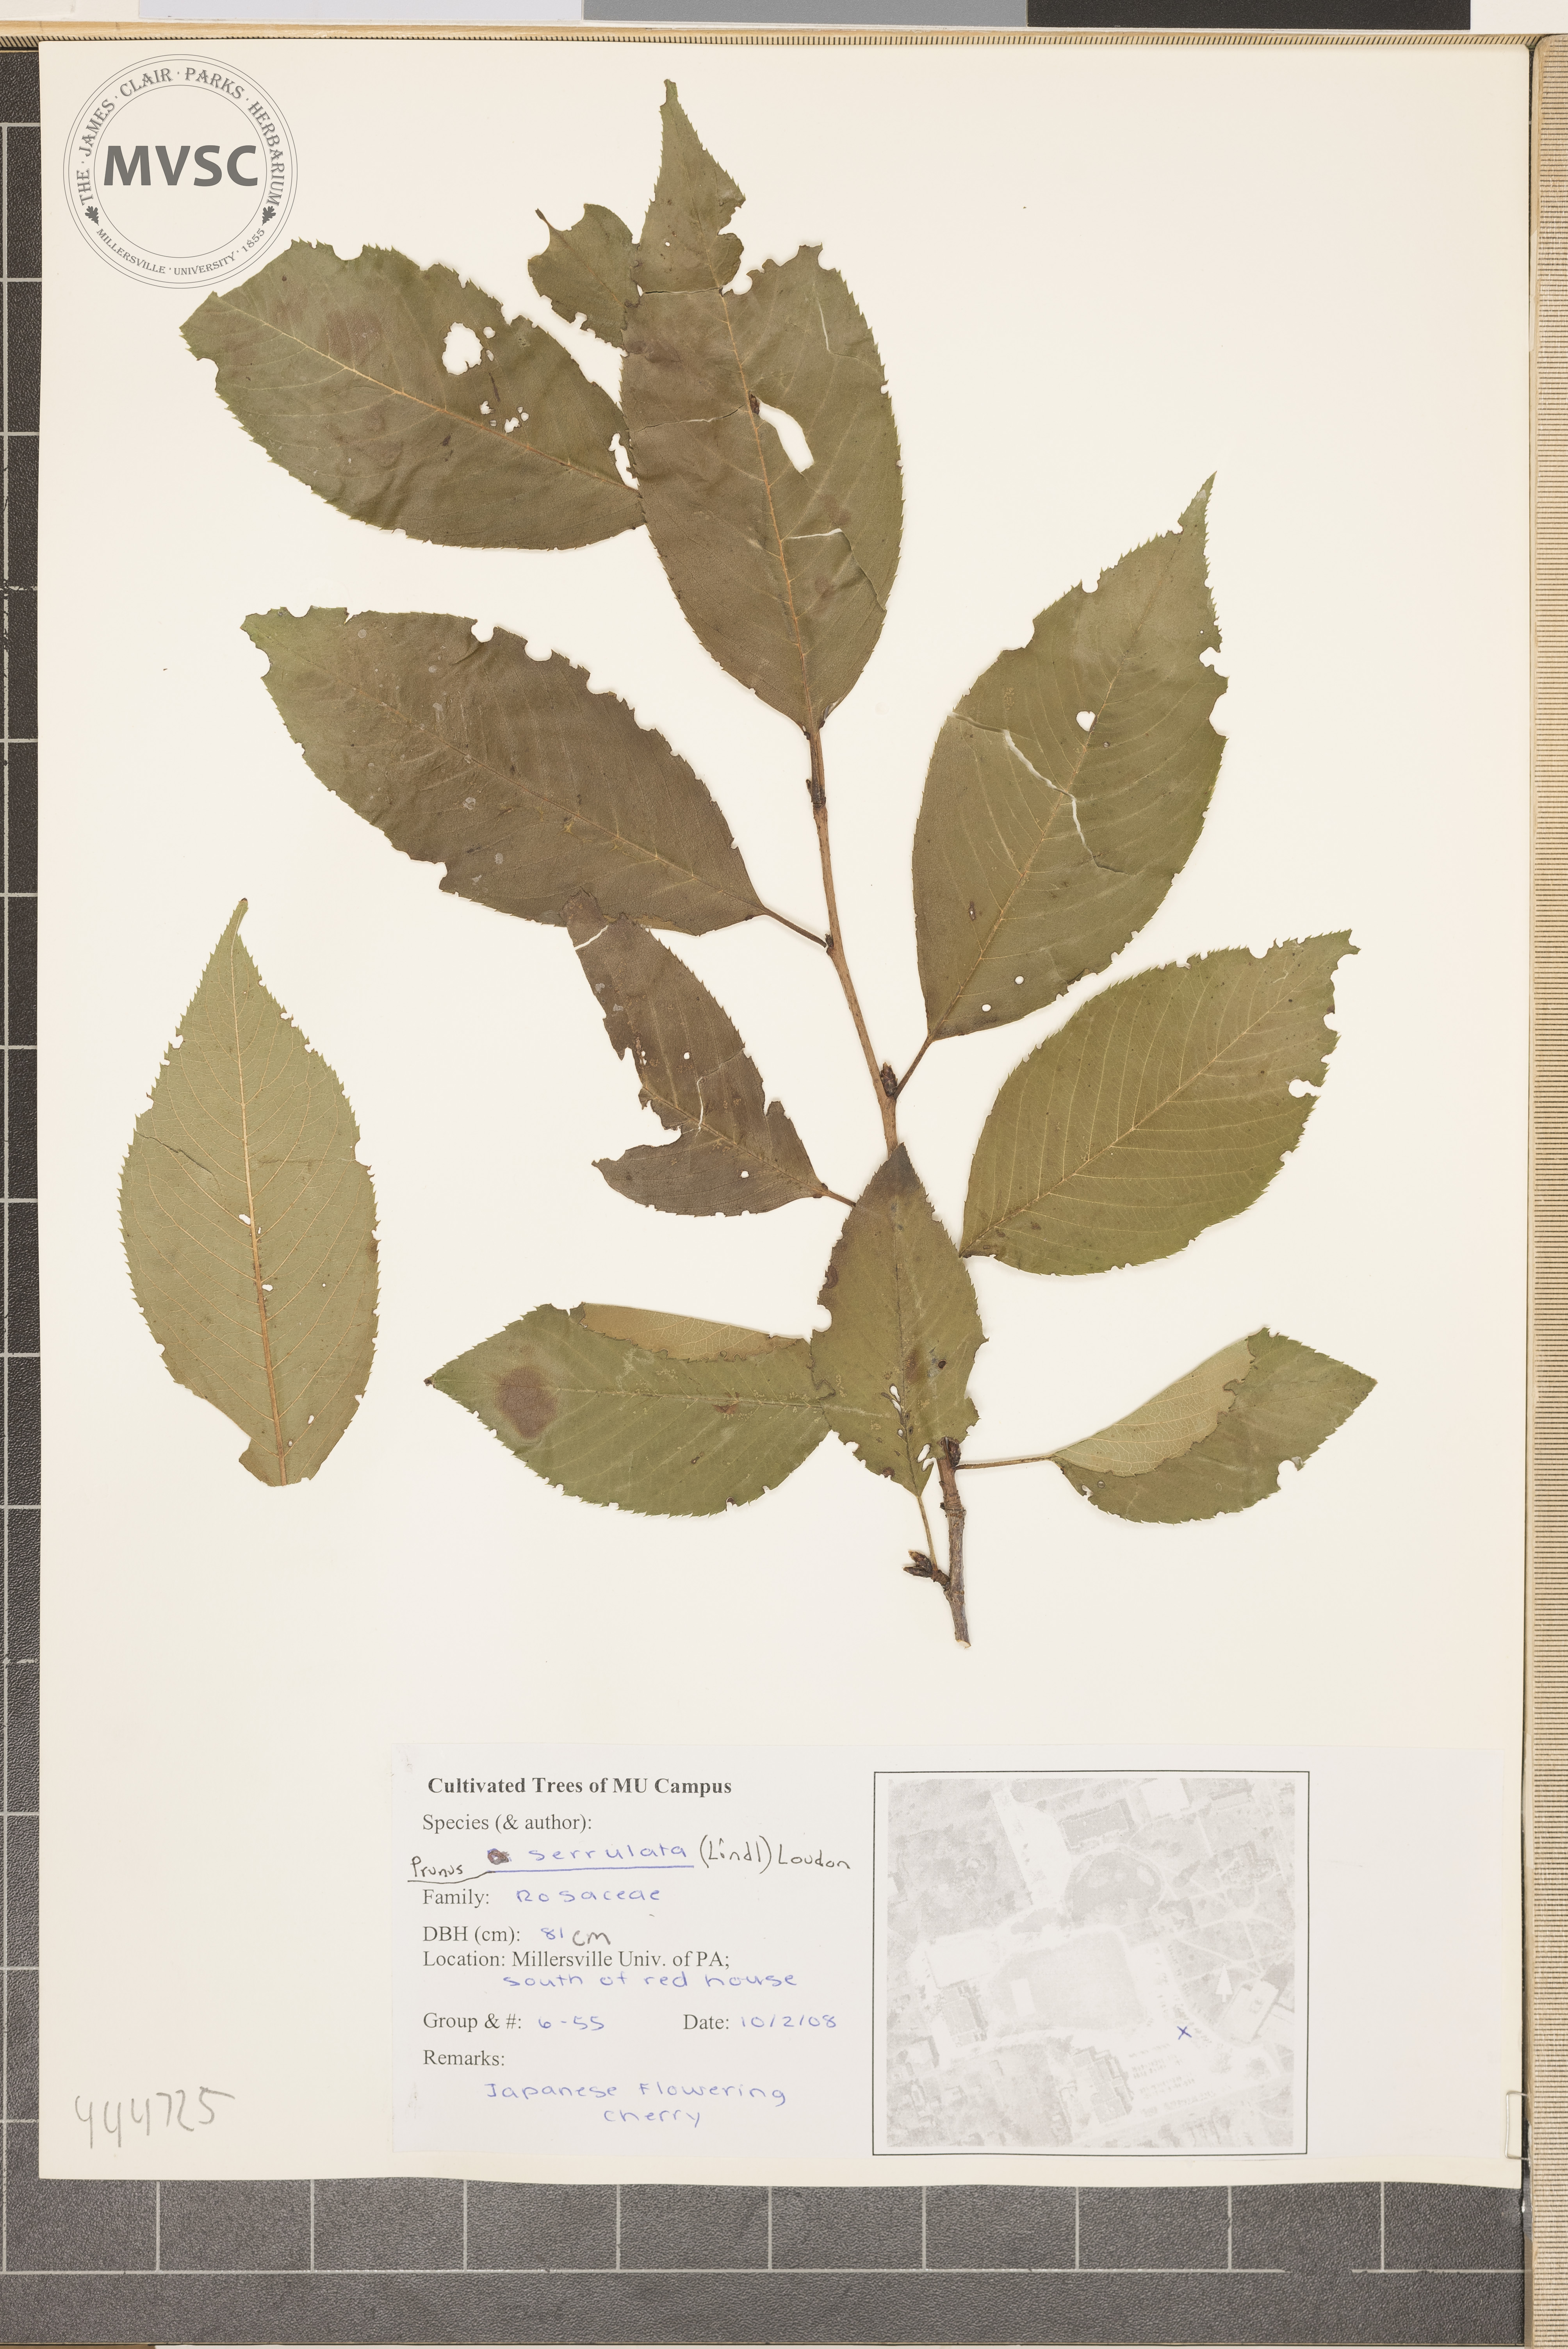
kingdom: Plantae
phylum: Tracheophyta
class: Magnoliopsida
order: Rosales
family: Rosaceae
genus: Prunus
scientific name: Prunus serrulata
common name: Japanese flowering cherry
